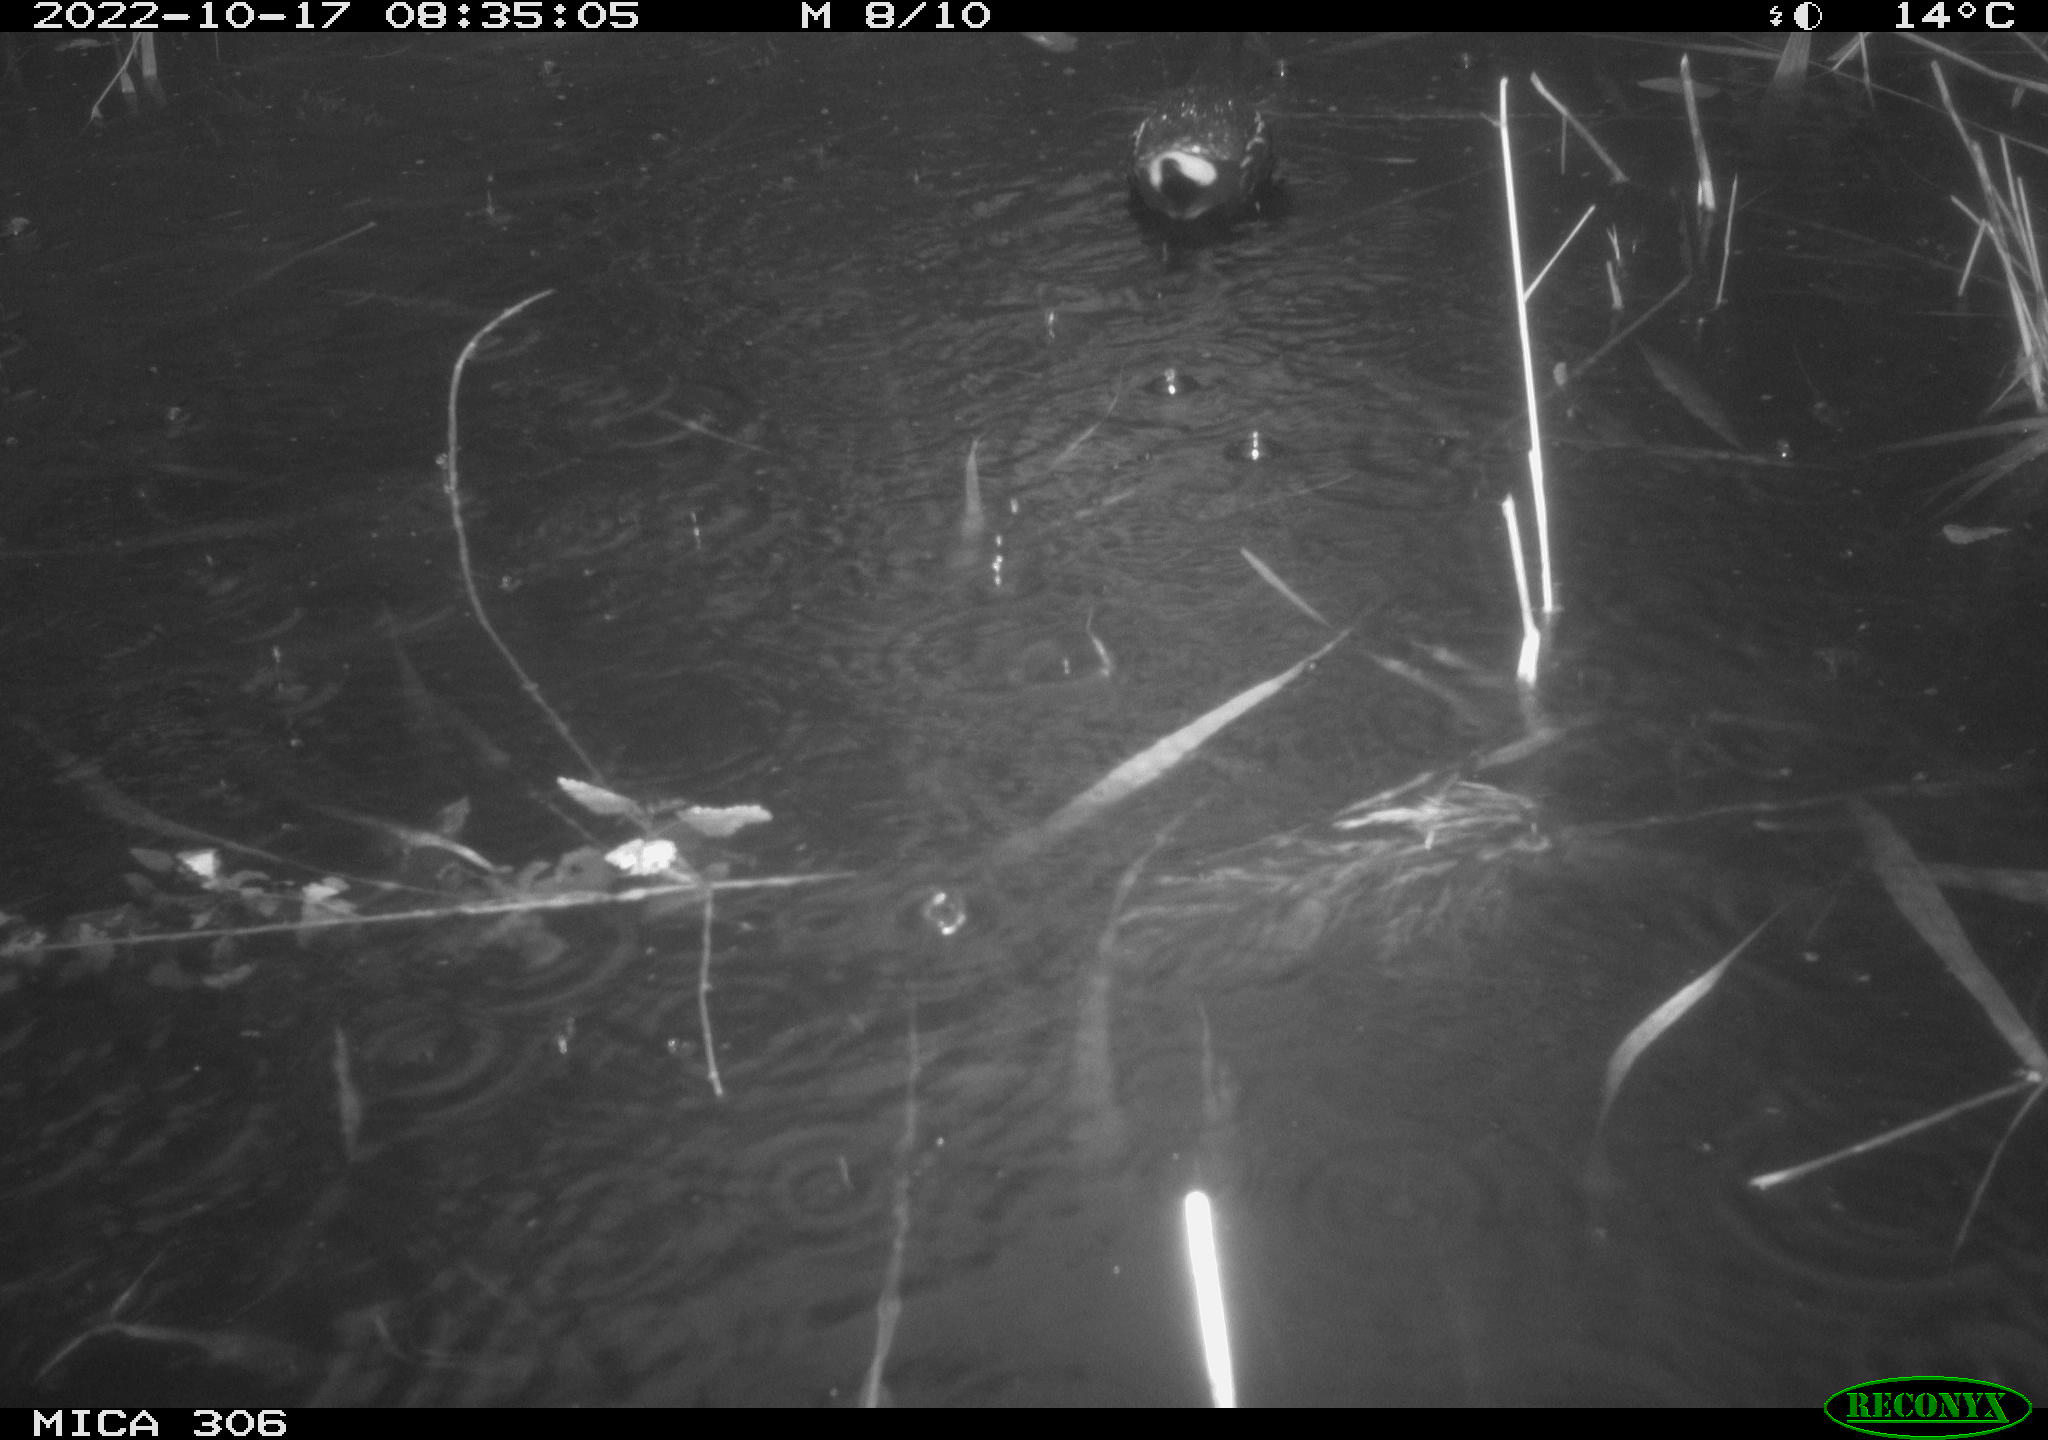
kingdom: Animalia
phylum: Chordata
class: Aves
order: Gruiformes
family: Rallidae
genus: Gallinula
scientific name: Gallinula chloropus
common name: Common moorhen
